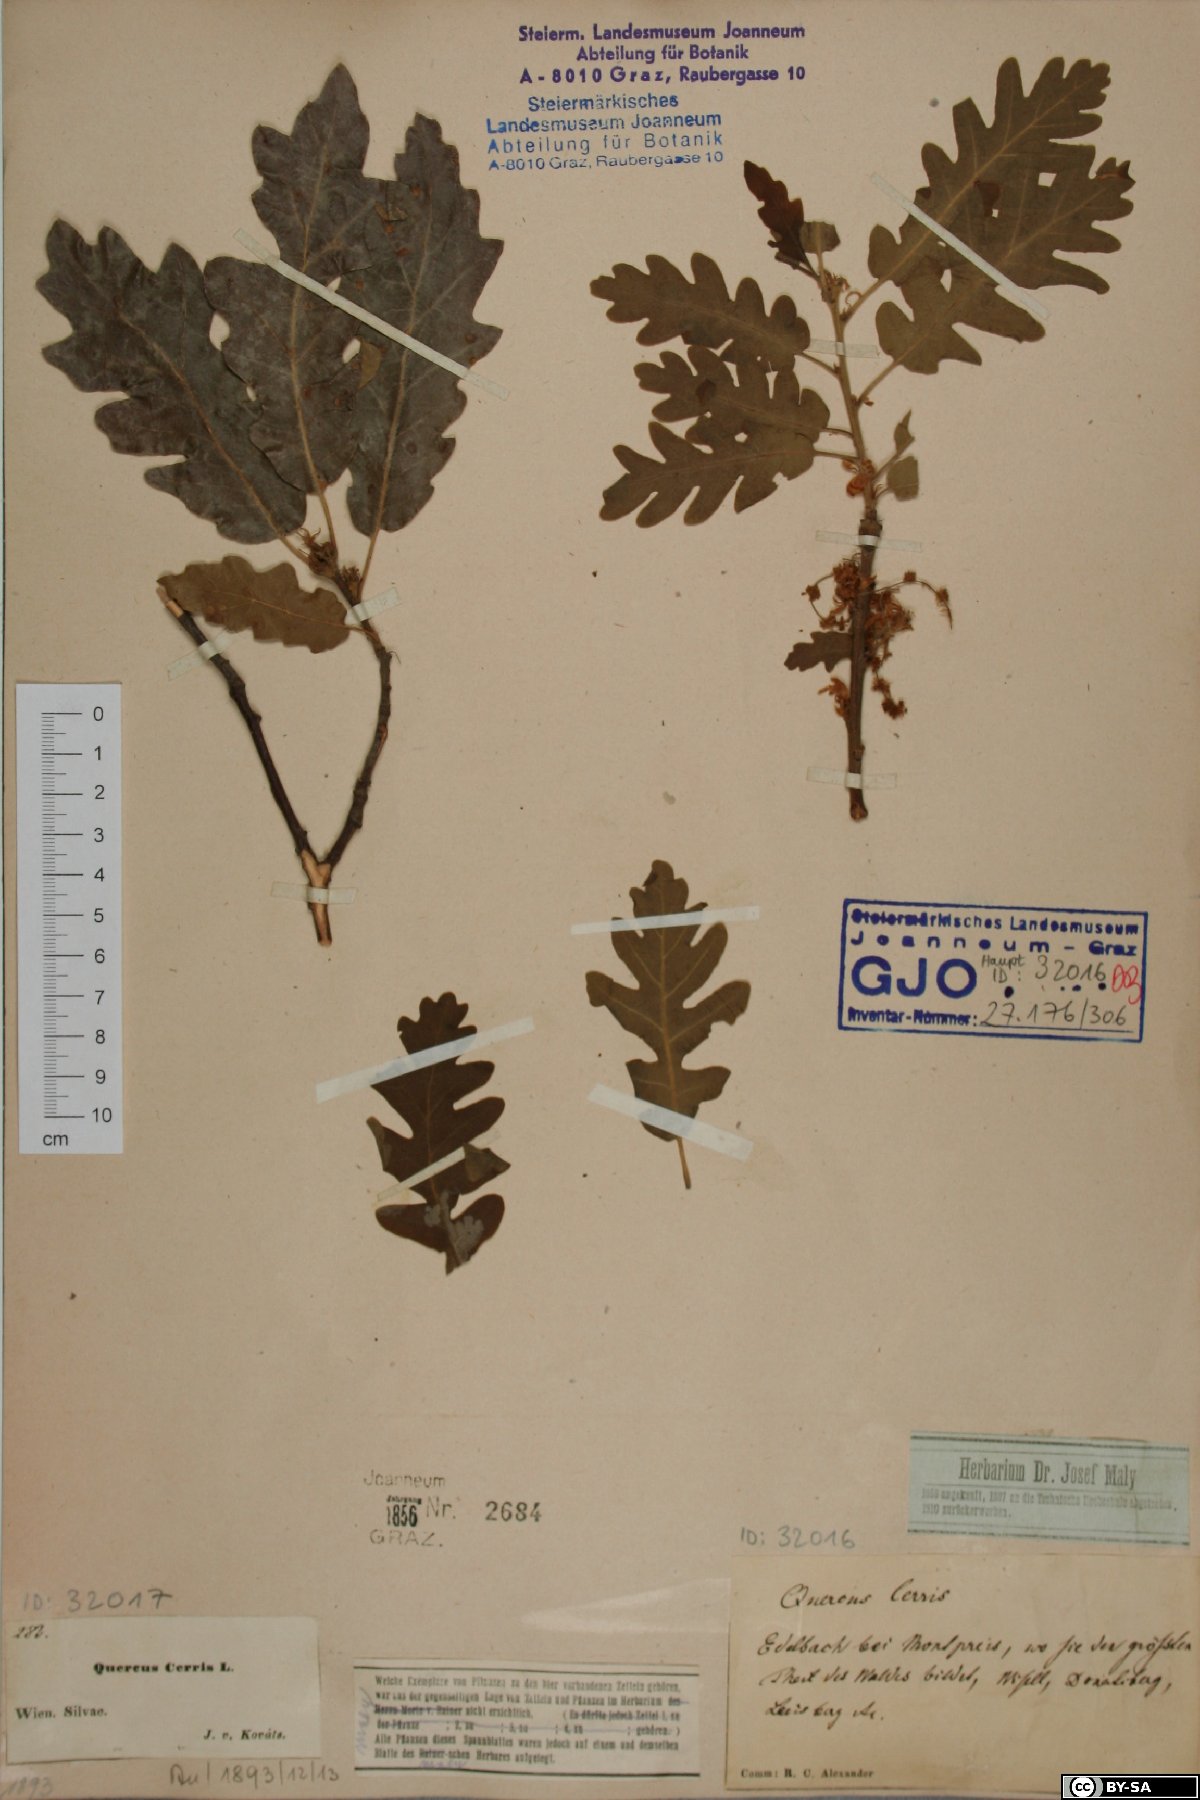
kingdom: Plantae
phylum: Tracheophyta
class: Magnoliopsida
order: Fagales
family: Fagaceae
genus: Quercus
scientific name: Quercus cerris
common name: Turkey oak
